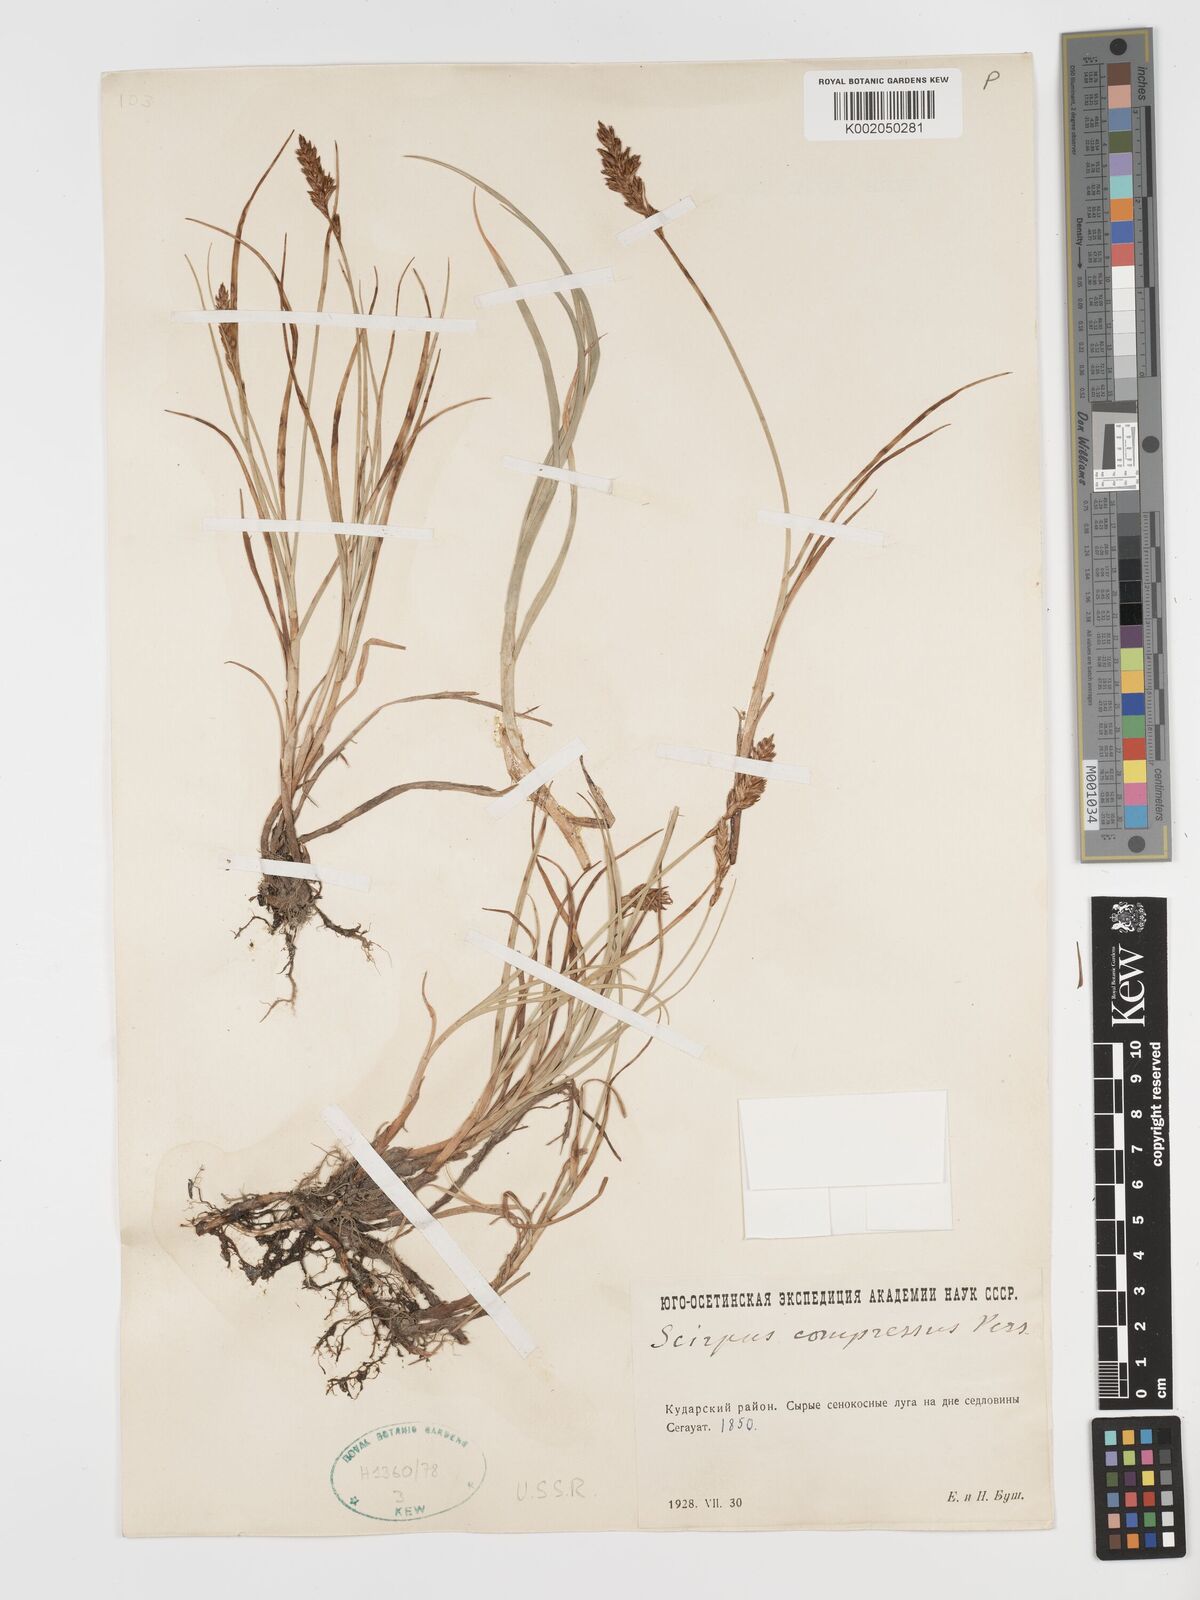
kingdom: Plantae
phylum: Tracheophyta
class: Liliopsida
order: Poales
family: Cyperaceae
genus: Blysmus
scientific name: Blysmus compressus
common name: Flat-sedge
